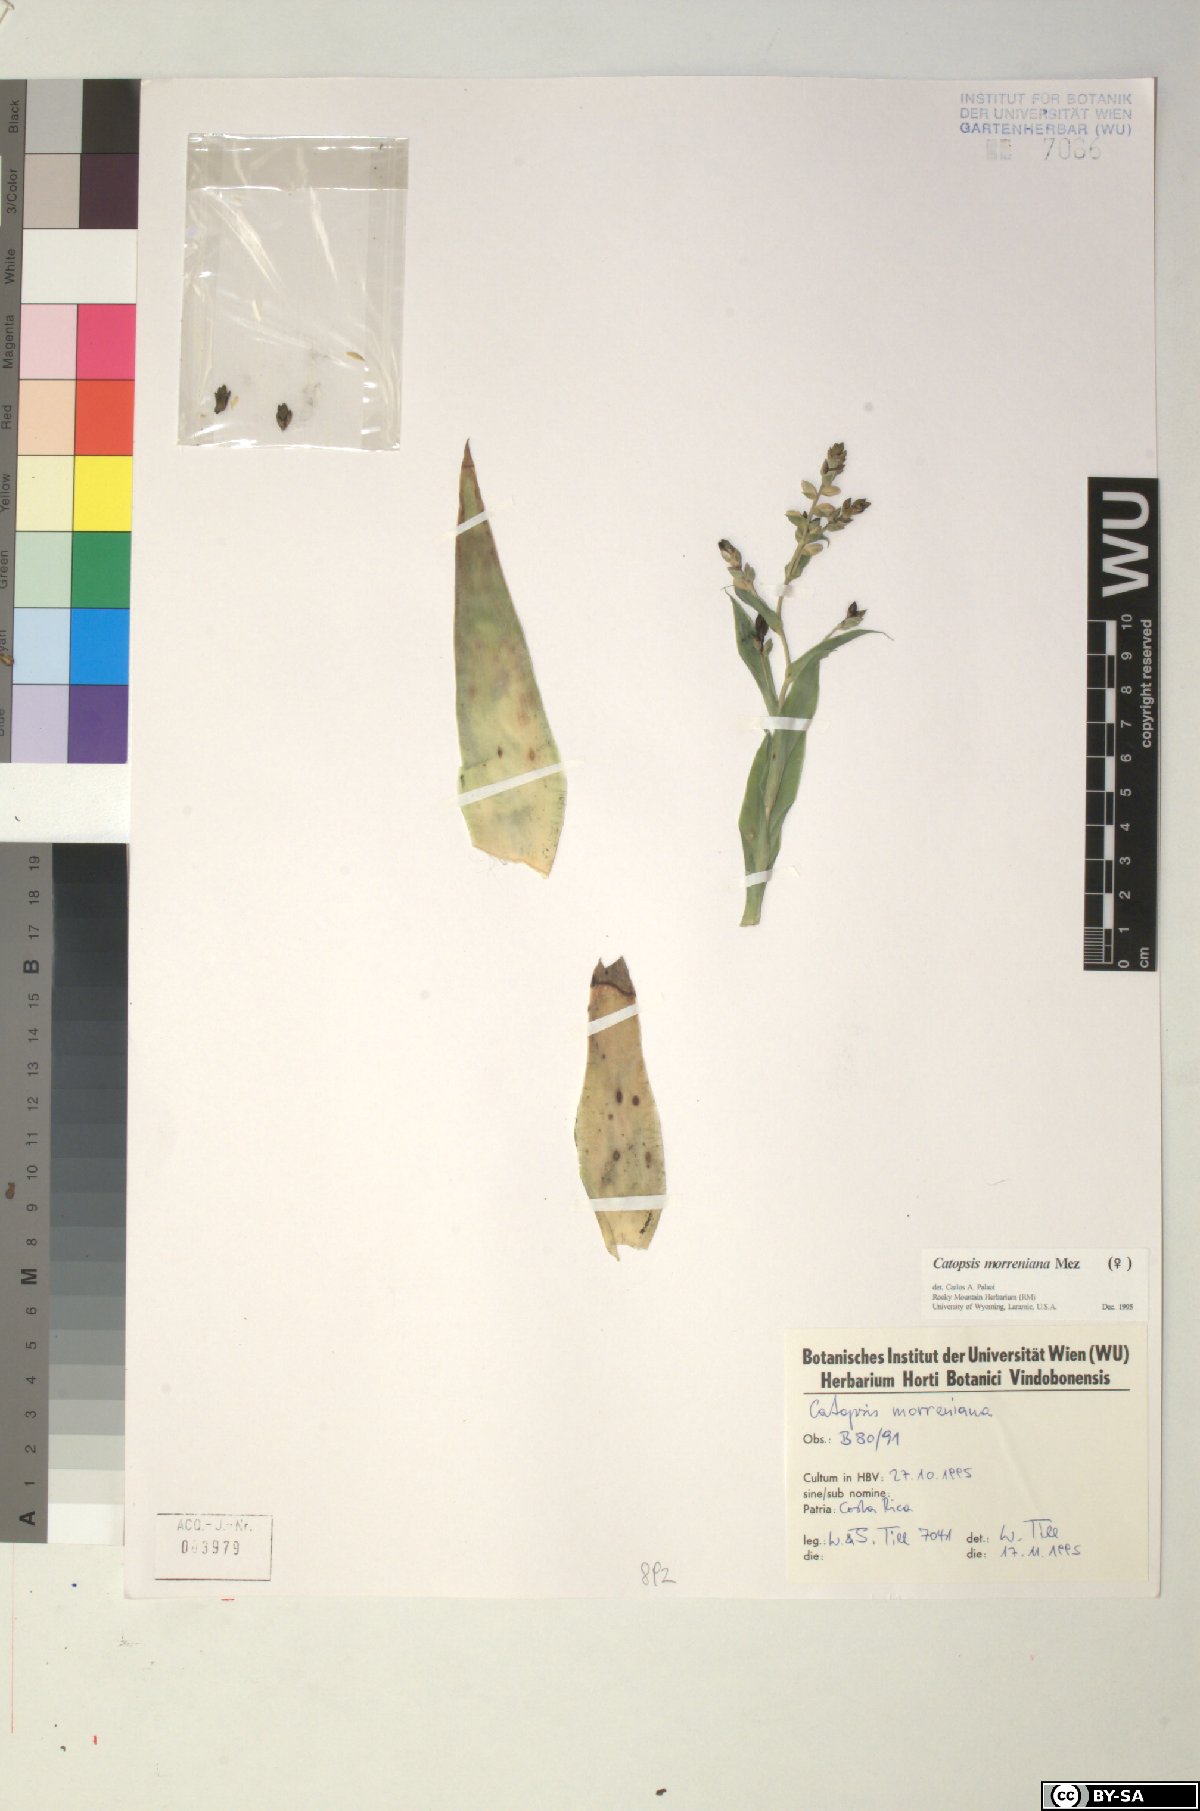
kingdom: Plantae
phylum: Tracheophyta
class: Liliopsida
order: Poales
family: Bromeliaceae
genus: Catopsis
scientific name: Catopsis morreniana
